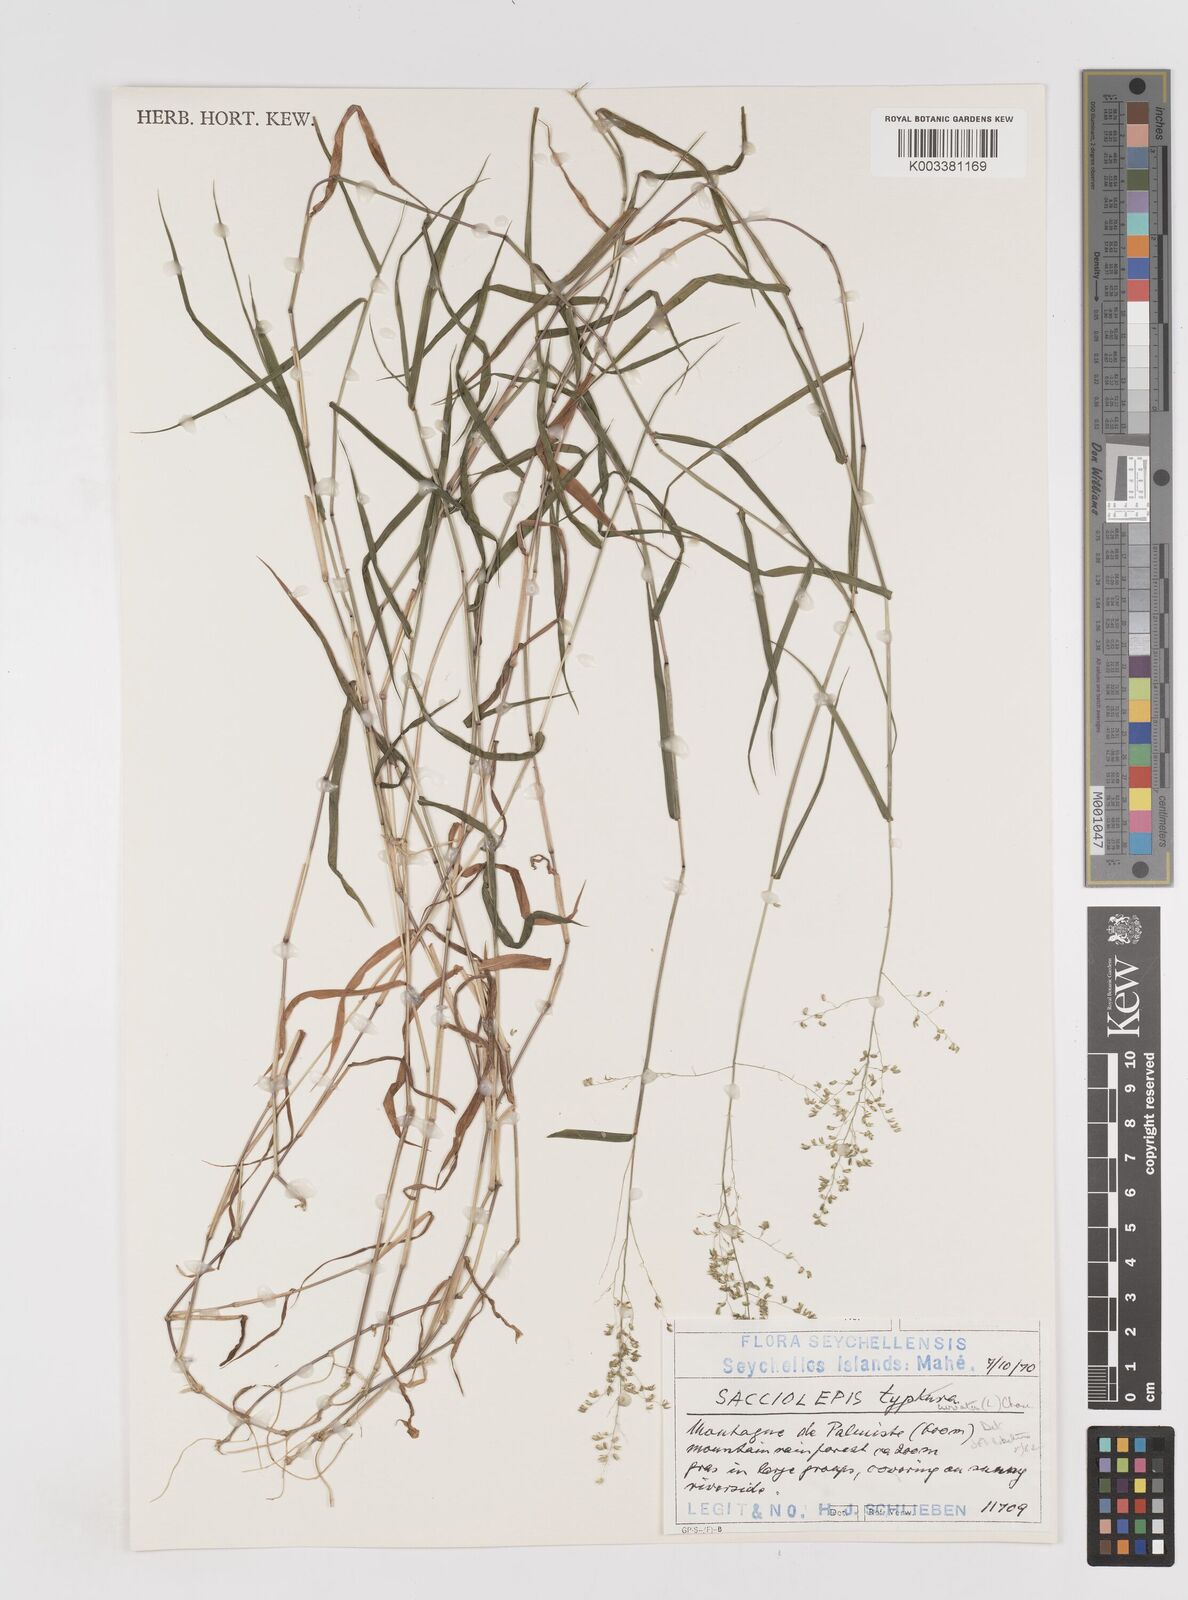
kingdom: Plantae
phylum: Tracheophyta
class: Liliopsida
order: Poales
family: Poaceae
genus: Sacciolepis
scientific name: Sacciolepis curvata
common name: Forest hood grass
